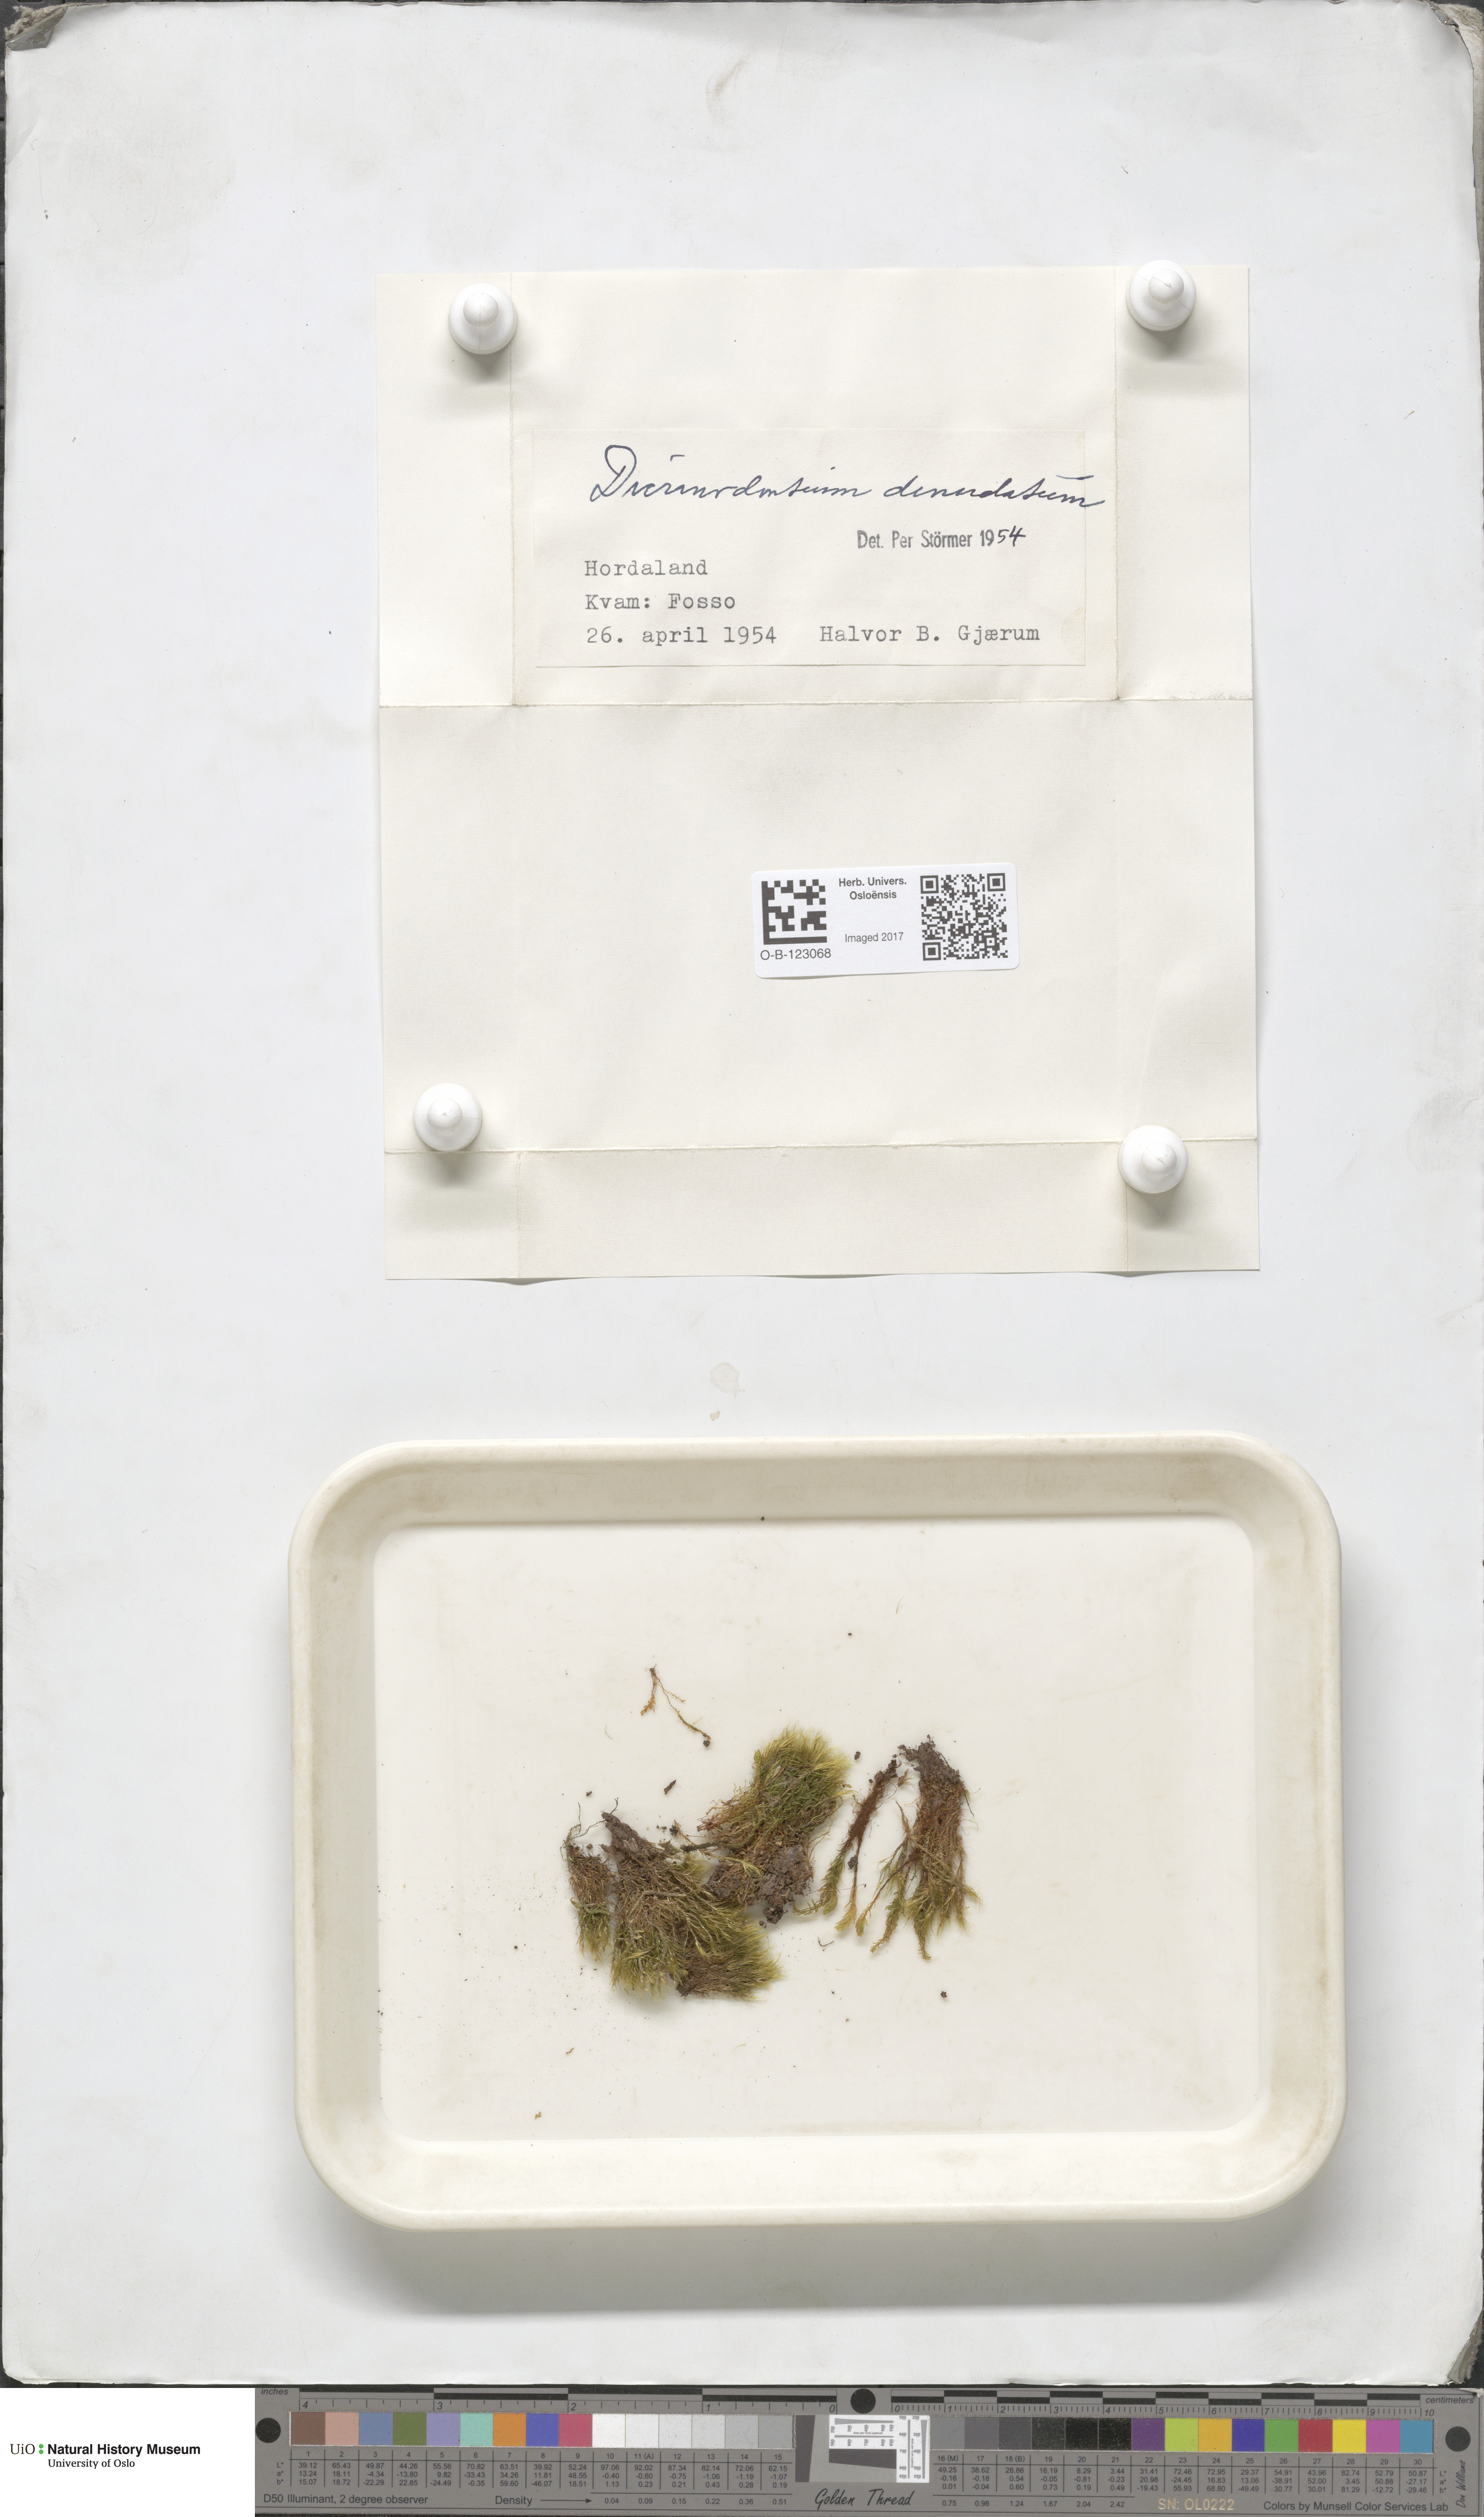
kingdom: Plantae
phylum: Bryophyta
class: Bryopsida
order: Dicranales
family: Leucobryaceae
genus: Dicranodontium
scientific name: Dicranodontium denudatum
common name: Beaked bow moss
